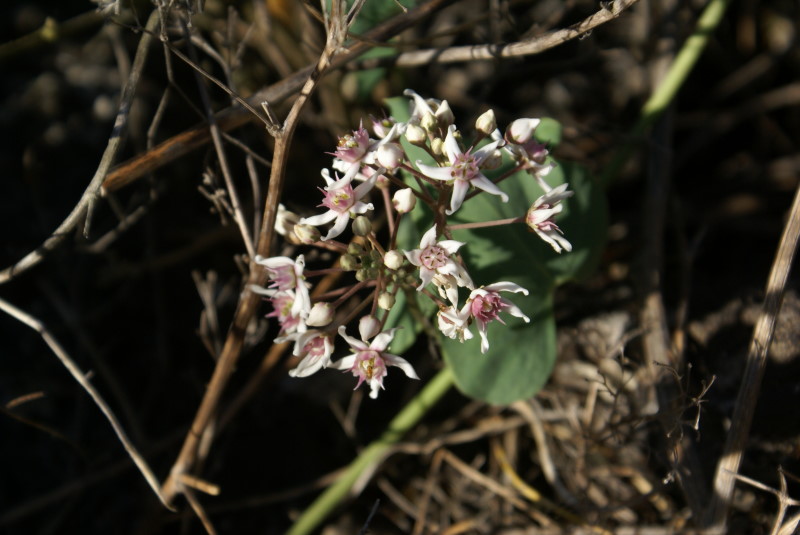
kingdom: Plantae
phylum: Tracheophyta
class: Magnoliopsida
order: Gentianales
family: Apocynaceae
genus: Cynanchum
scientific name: Cynanchum acutum
